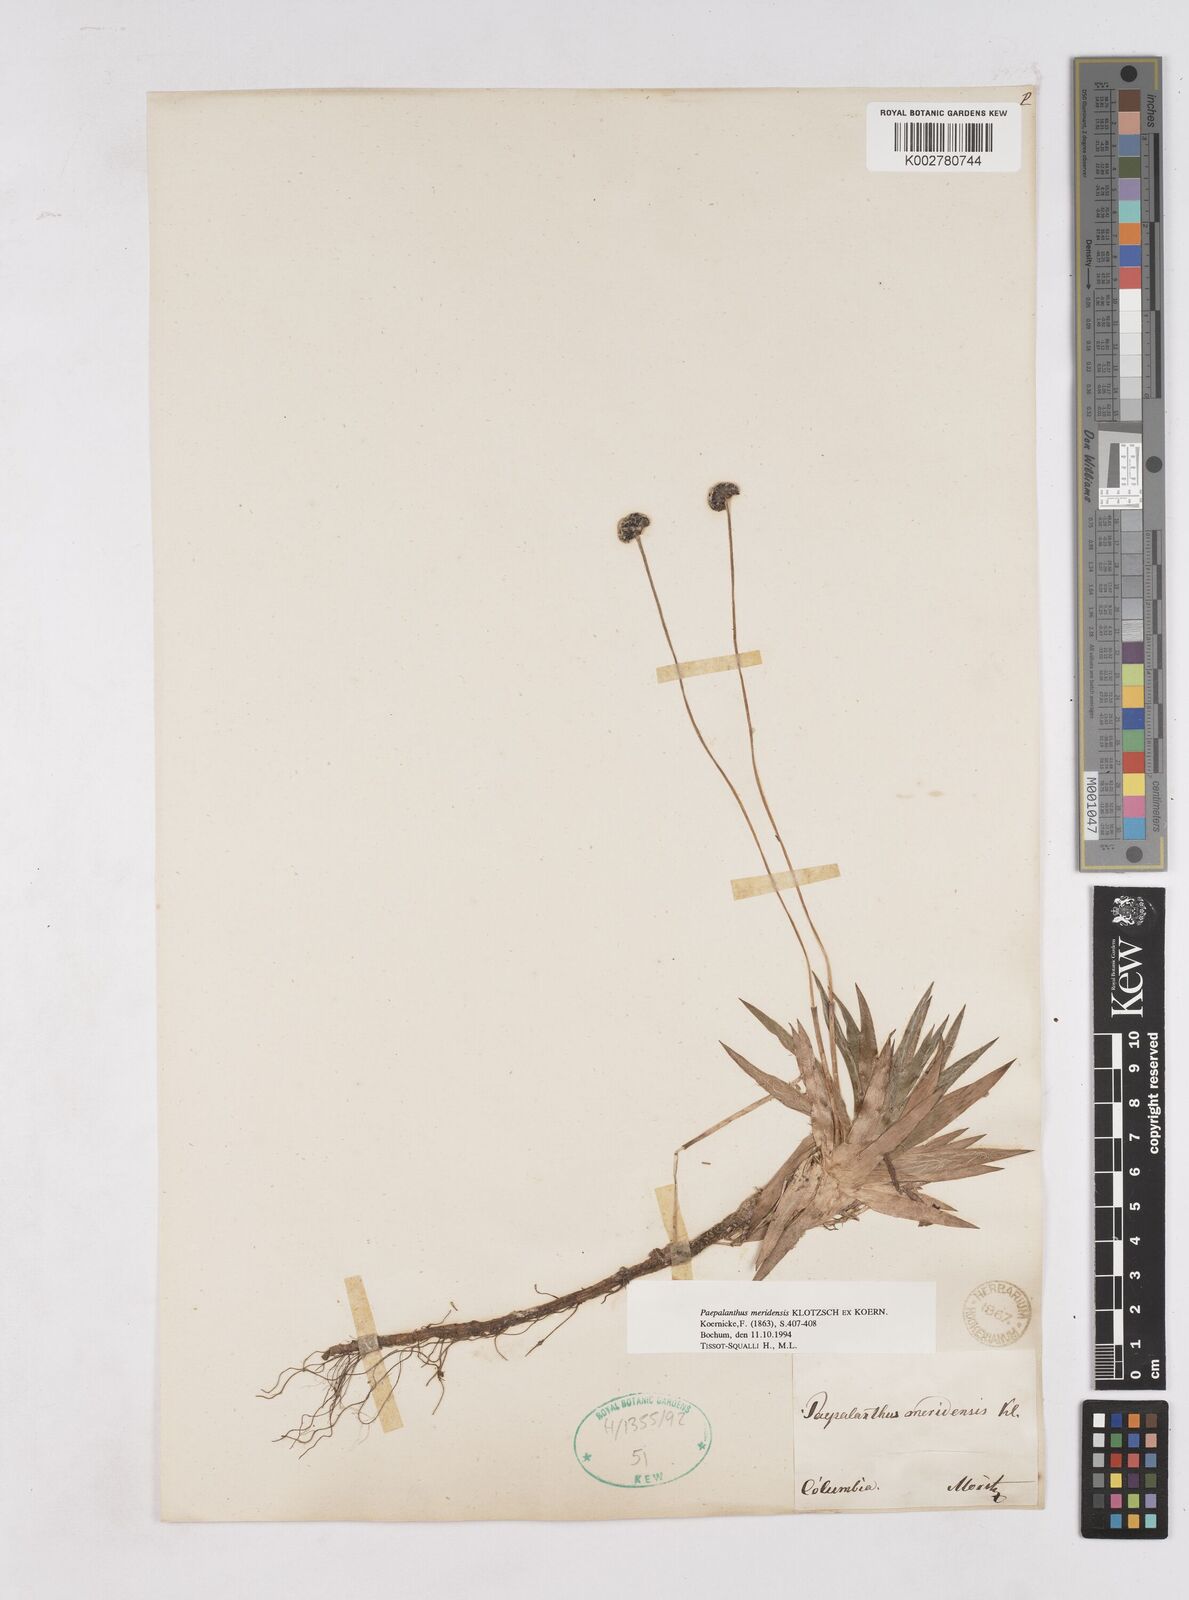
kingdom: Plantae
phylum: Tracheophyta
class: Liliopsida
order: Poales
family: Eriocaulaceae
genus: Paepalanthus
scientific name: Paepalanthus meridensis
